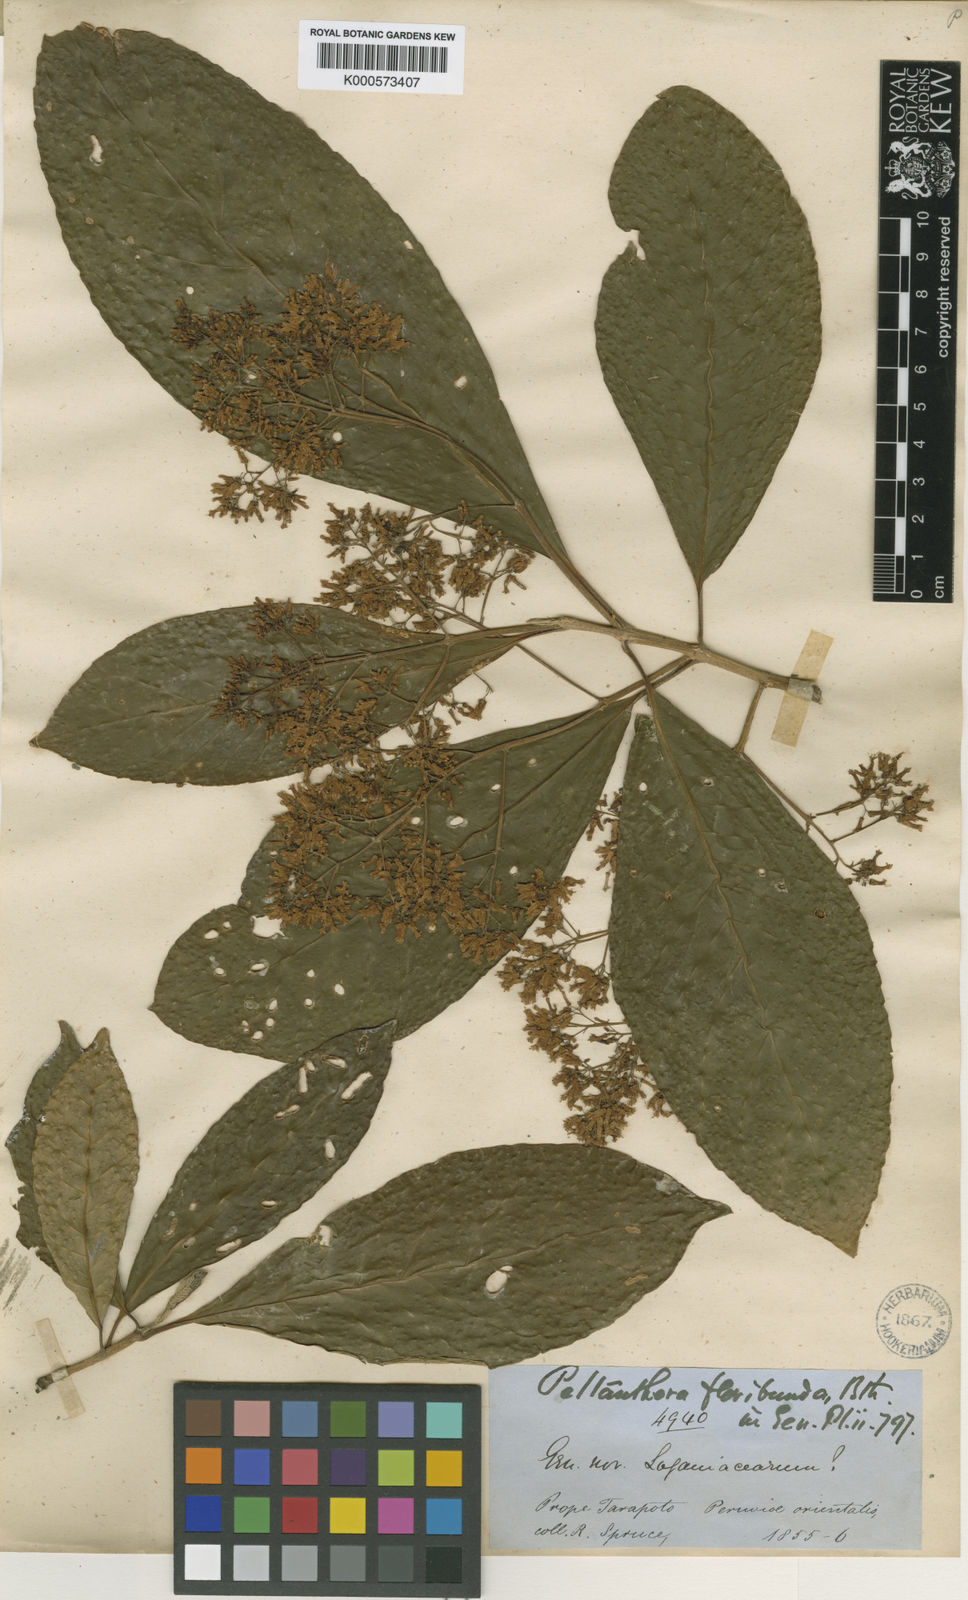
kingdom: Plantae
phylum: Tracheophyta
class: Magnoliopsida
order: Lamiales
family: Peltantheraceae
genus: Peltanthera
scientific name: Peltanthera floribunda
